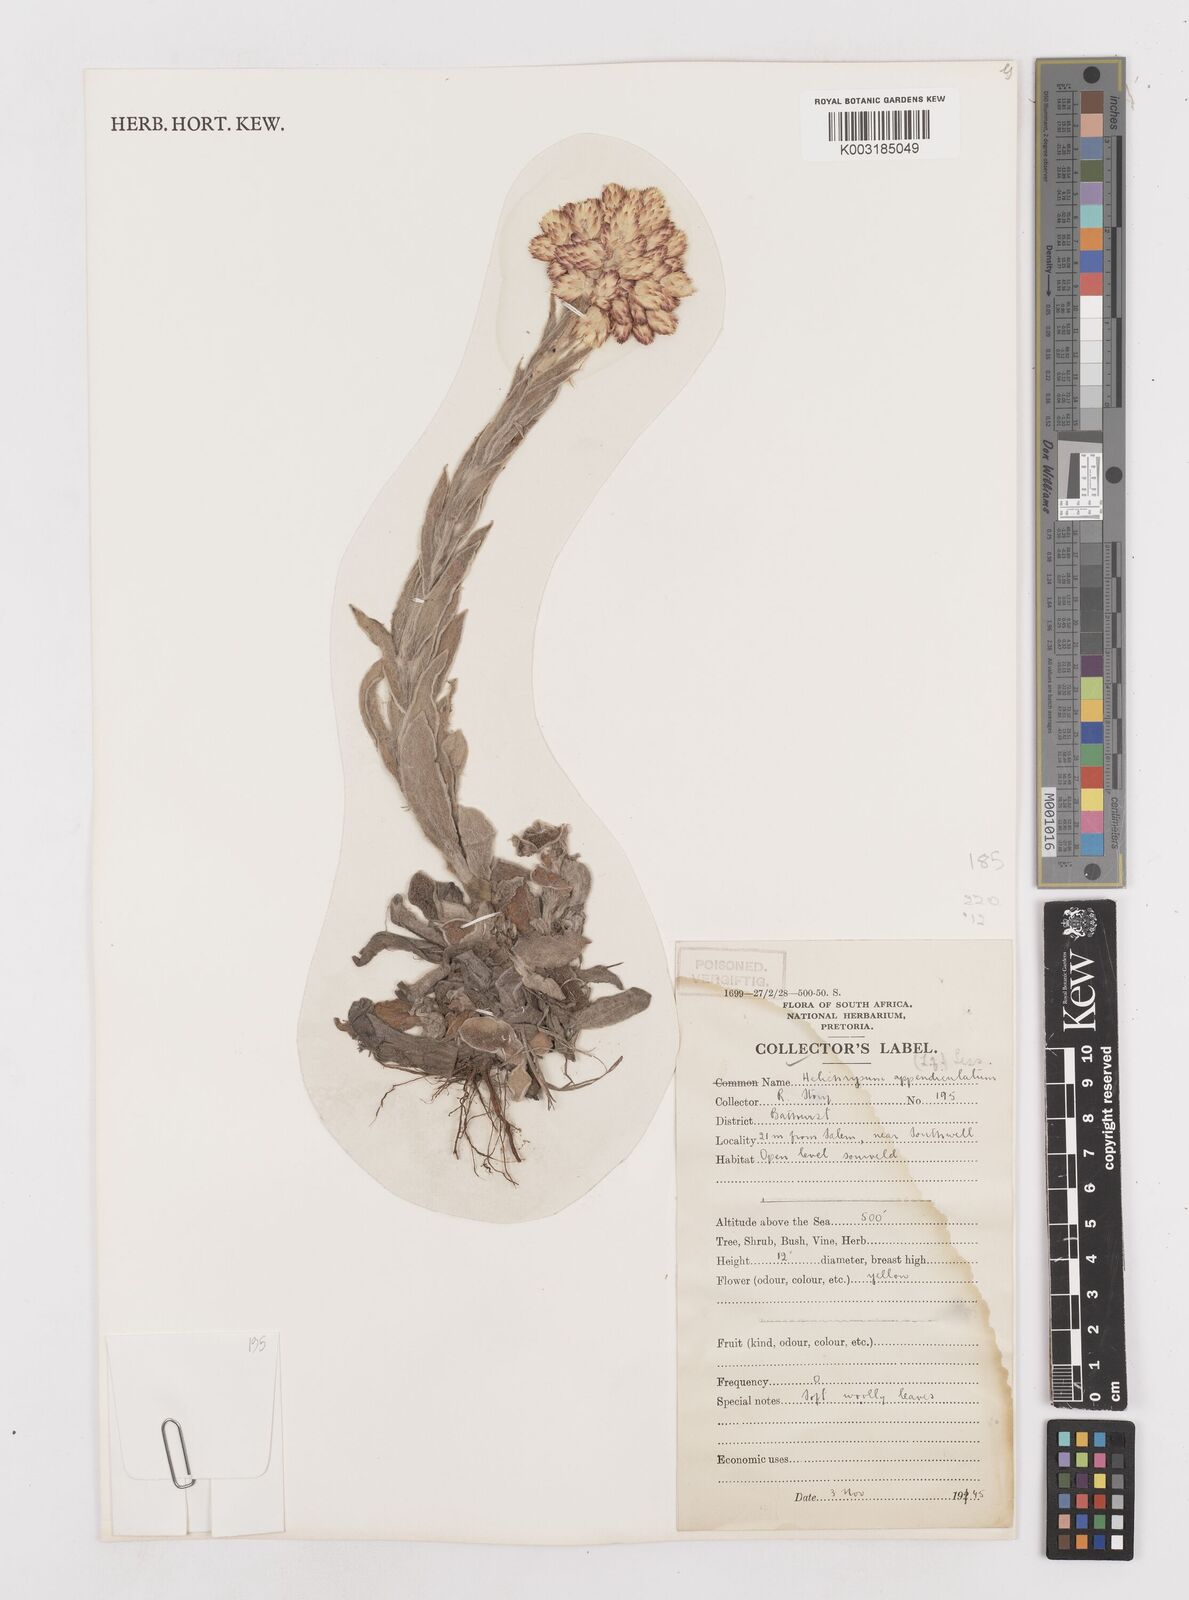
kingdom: Plantae
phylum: Tracheophyta
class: Magnoliopsida
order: Asterales
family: Asteraceae
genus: Helichrysum
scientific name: Helichrysum appendiculatum
